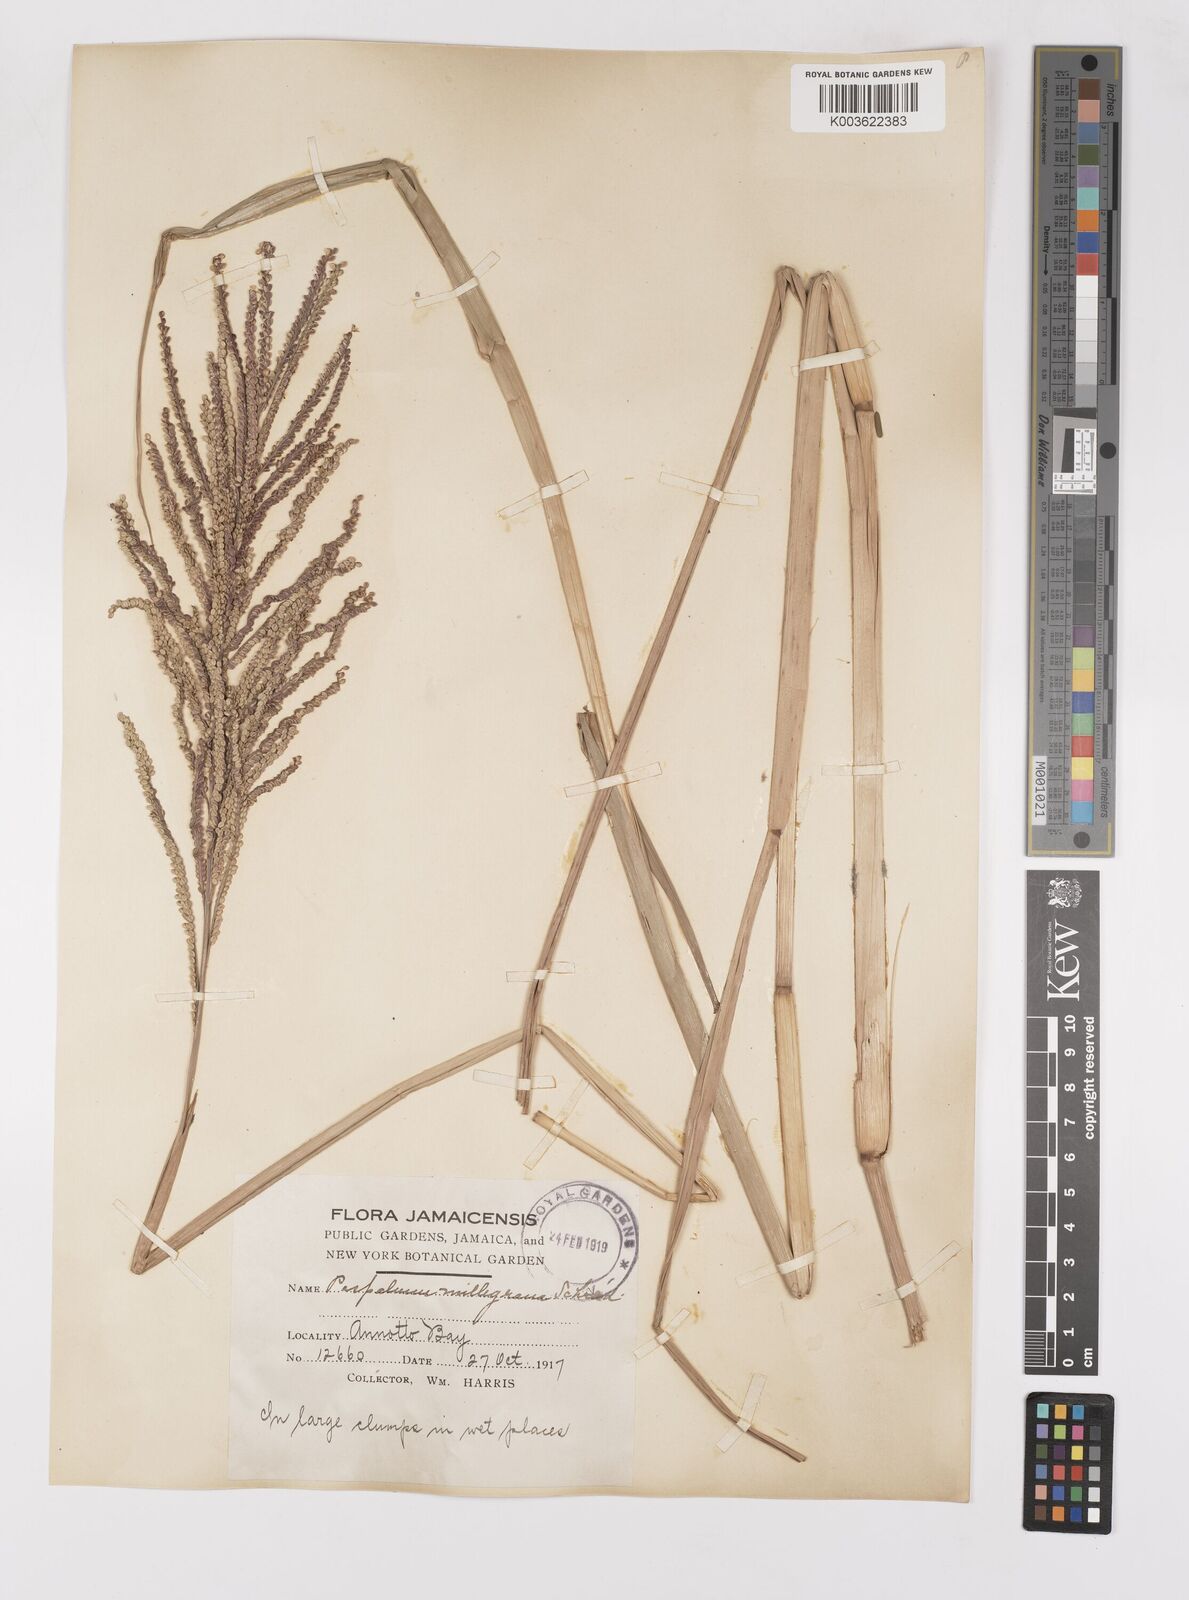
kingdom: Plantae
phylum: Tracheophyta
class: Liliopsida
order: Poales
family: Poaceae
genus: Paspalum
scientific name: Paspalum millegranum
